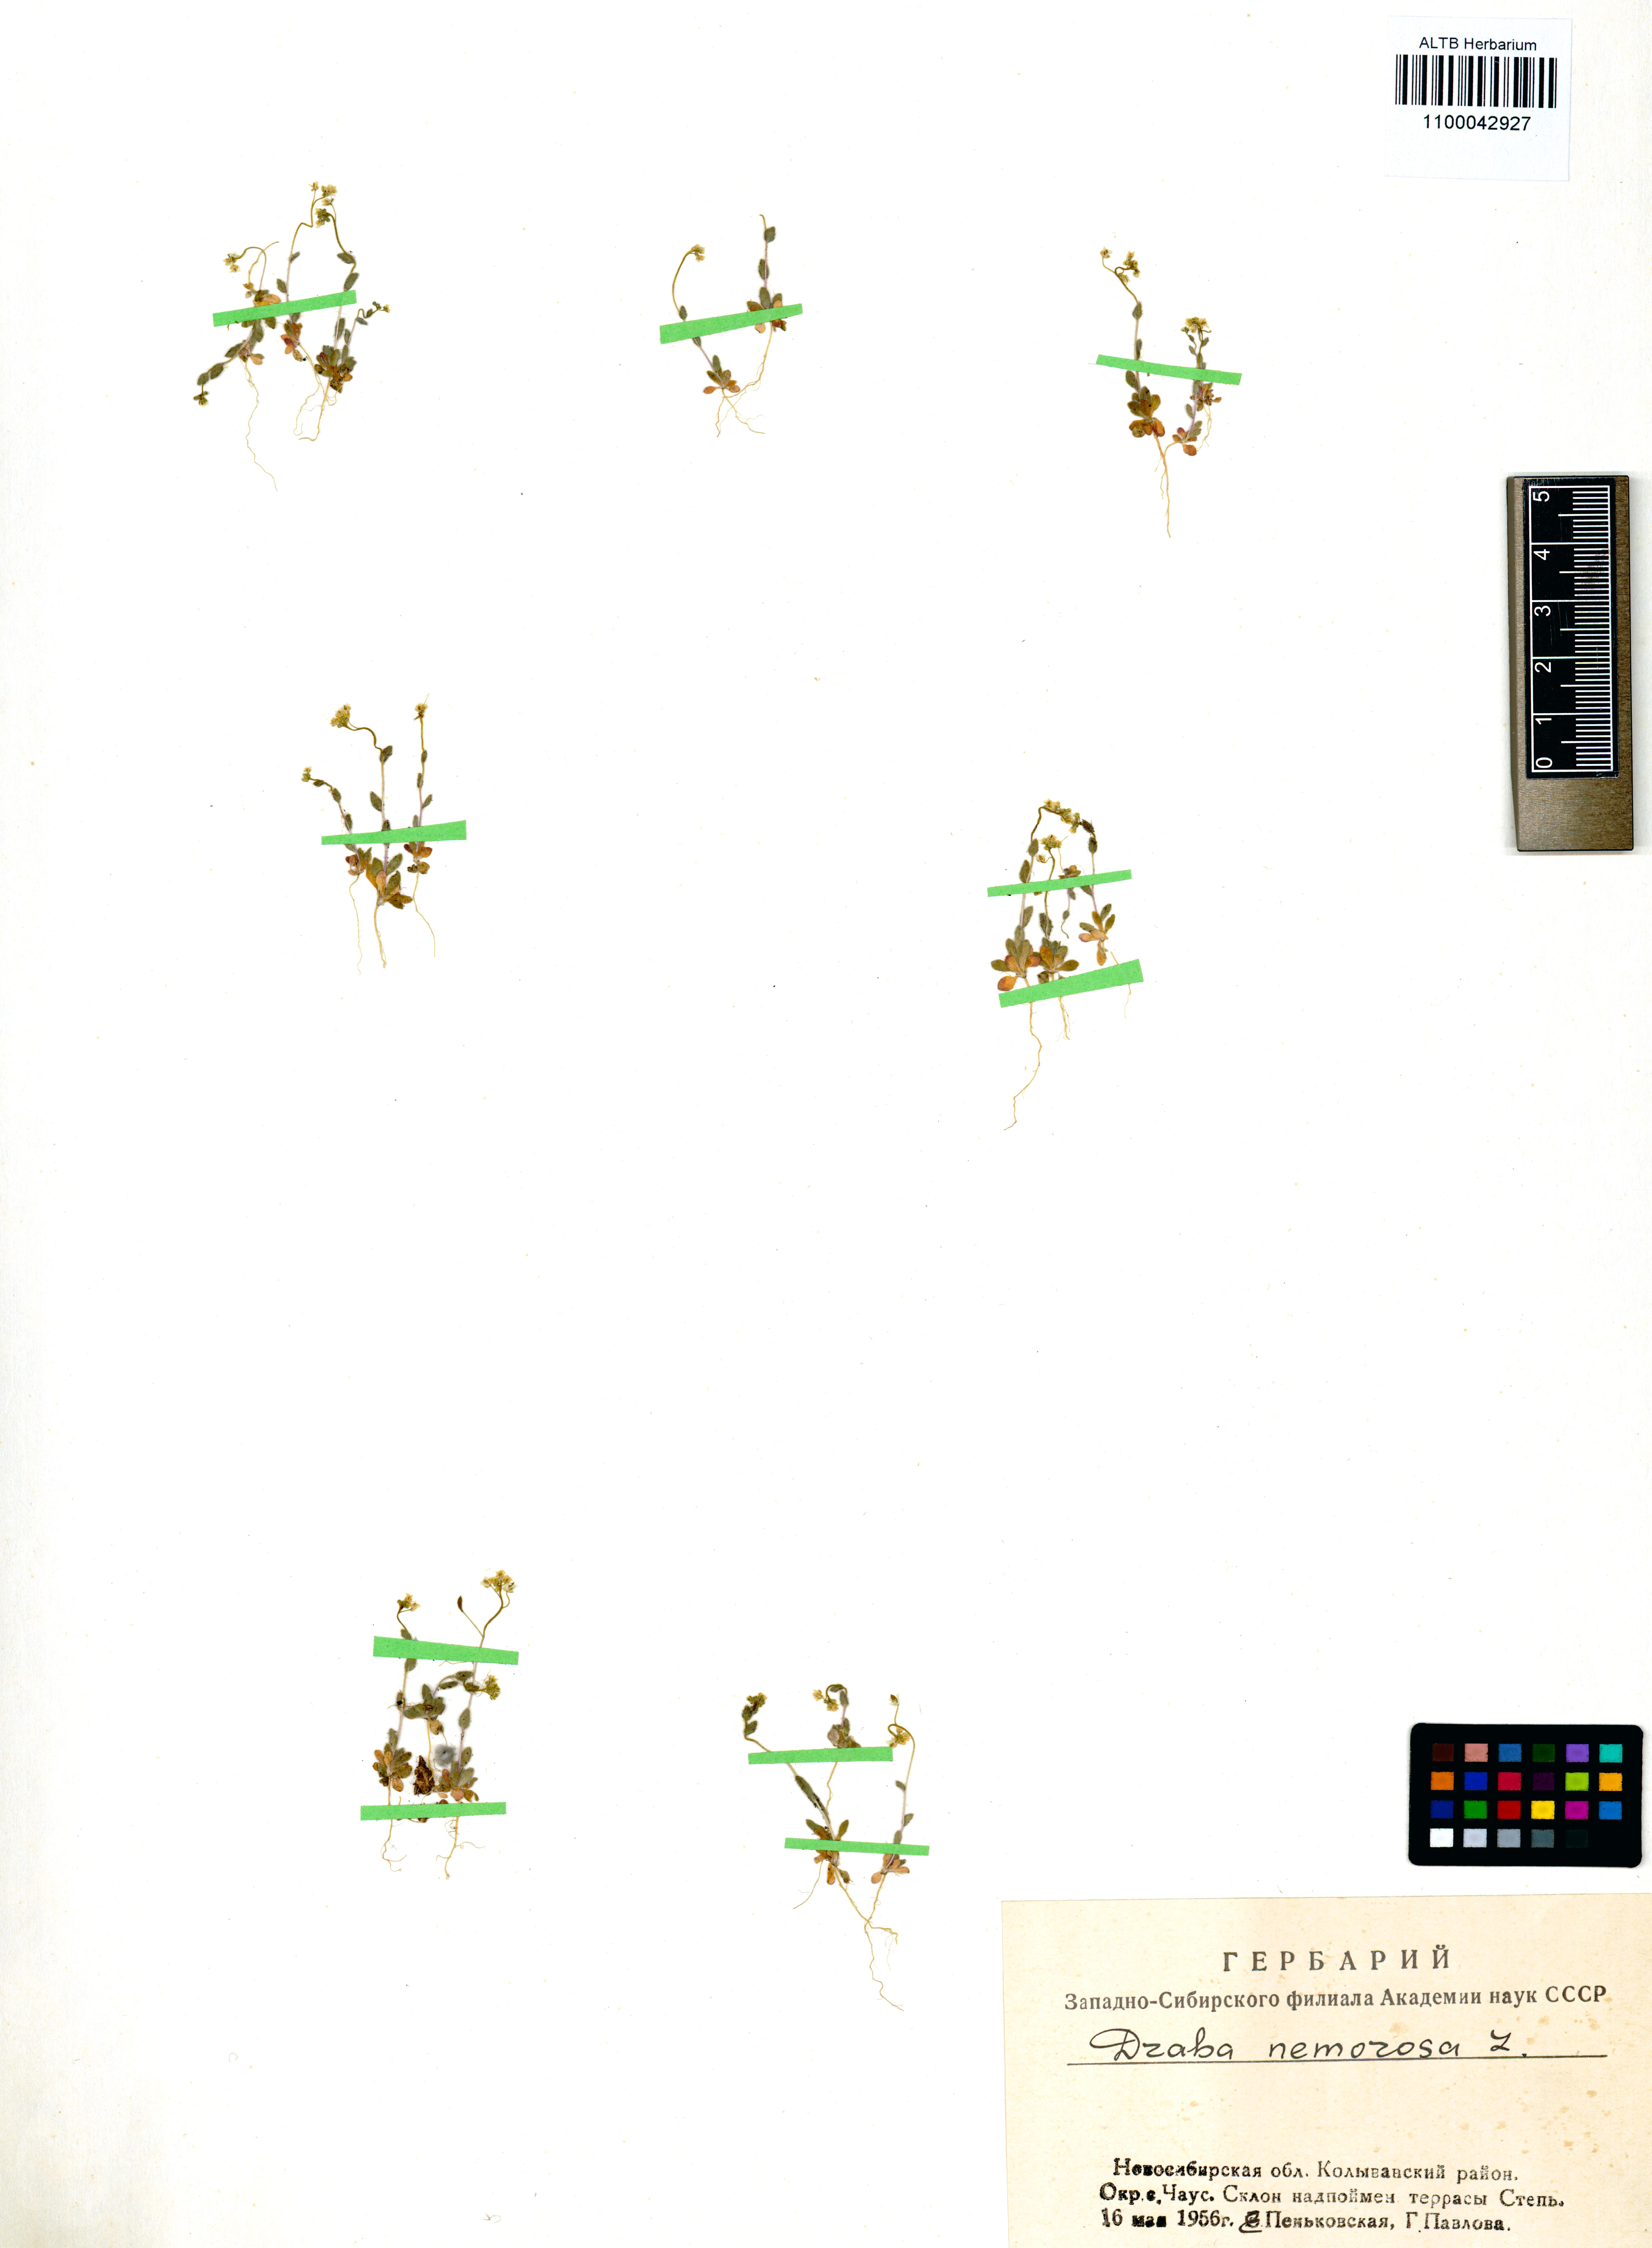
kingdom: Plantae
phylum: Tracheophyta
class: Magnoliopsida
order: Brassicales
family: Brassicaceae
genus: Draba
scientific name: Draba nemorosa
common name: Wood whitlow-grass
